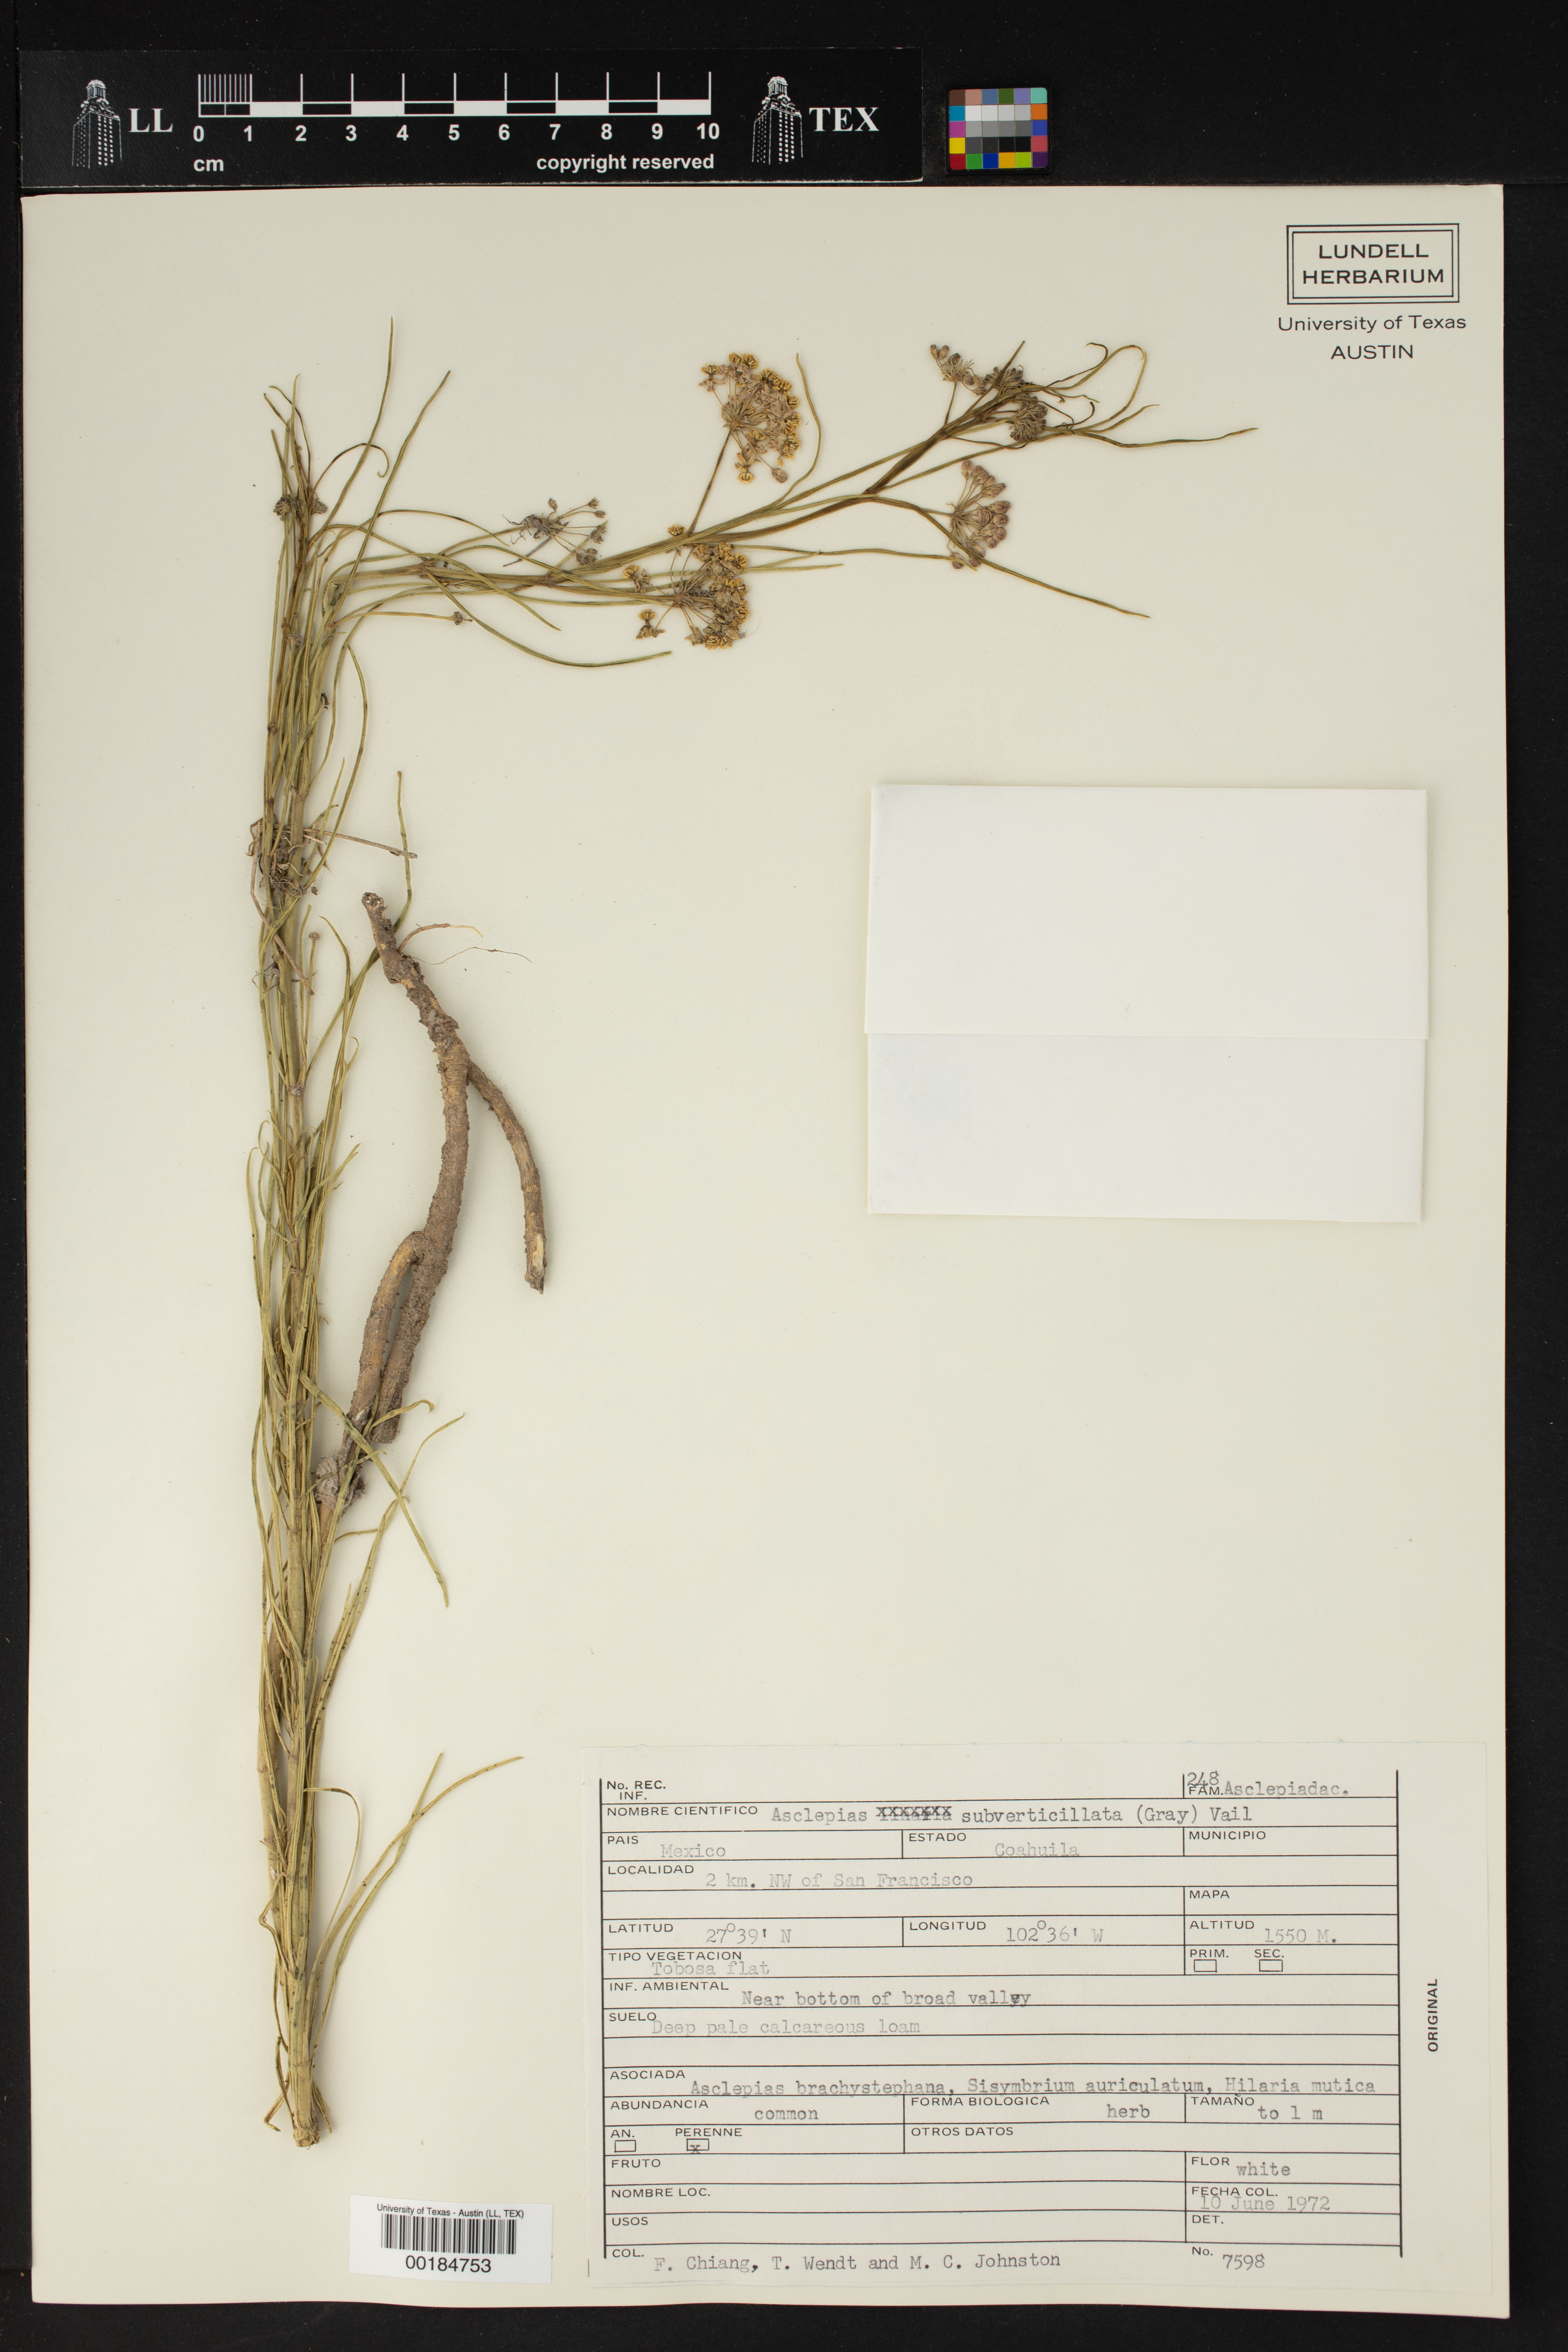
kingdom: Plantae
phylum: Tracheophyta
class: Magnoliopsida
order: Gentianales
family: Apocynaceae
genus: Asclepias
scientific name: Asclepias subverticillata
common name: Horsetail milkweed
